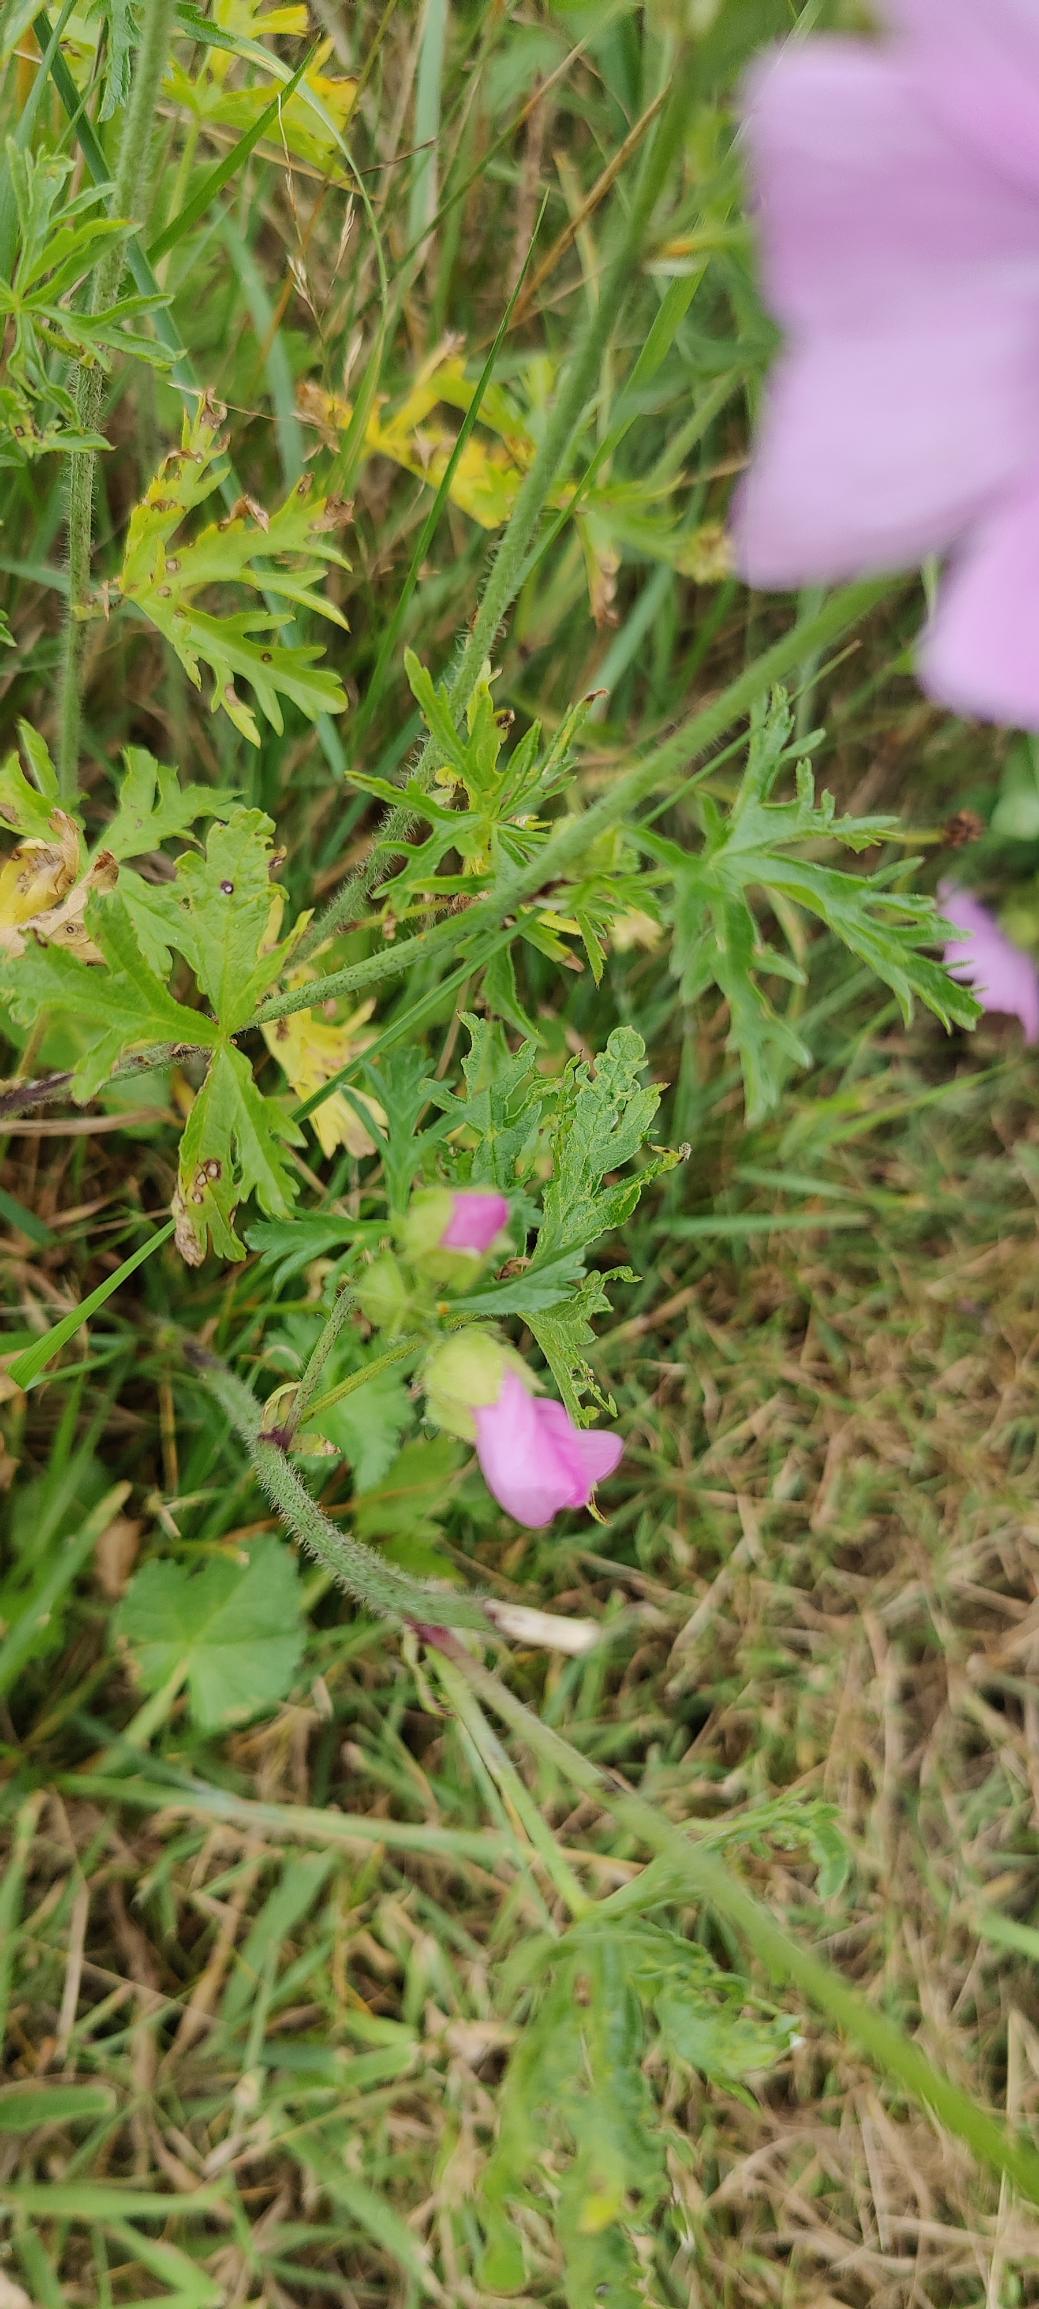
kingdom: Plantae
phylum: Tracheophyta
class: Magnoliopsida
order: Malvales
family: Malvaceae
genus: Malva
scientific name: Malva moschata
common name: Moskus-katost
